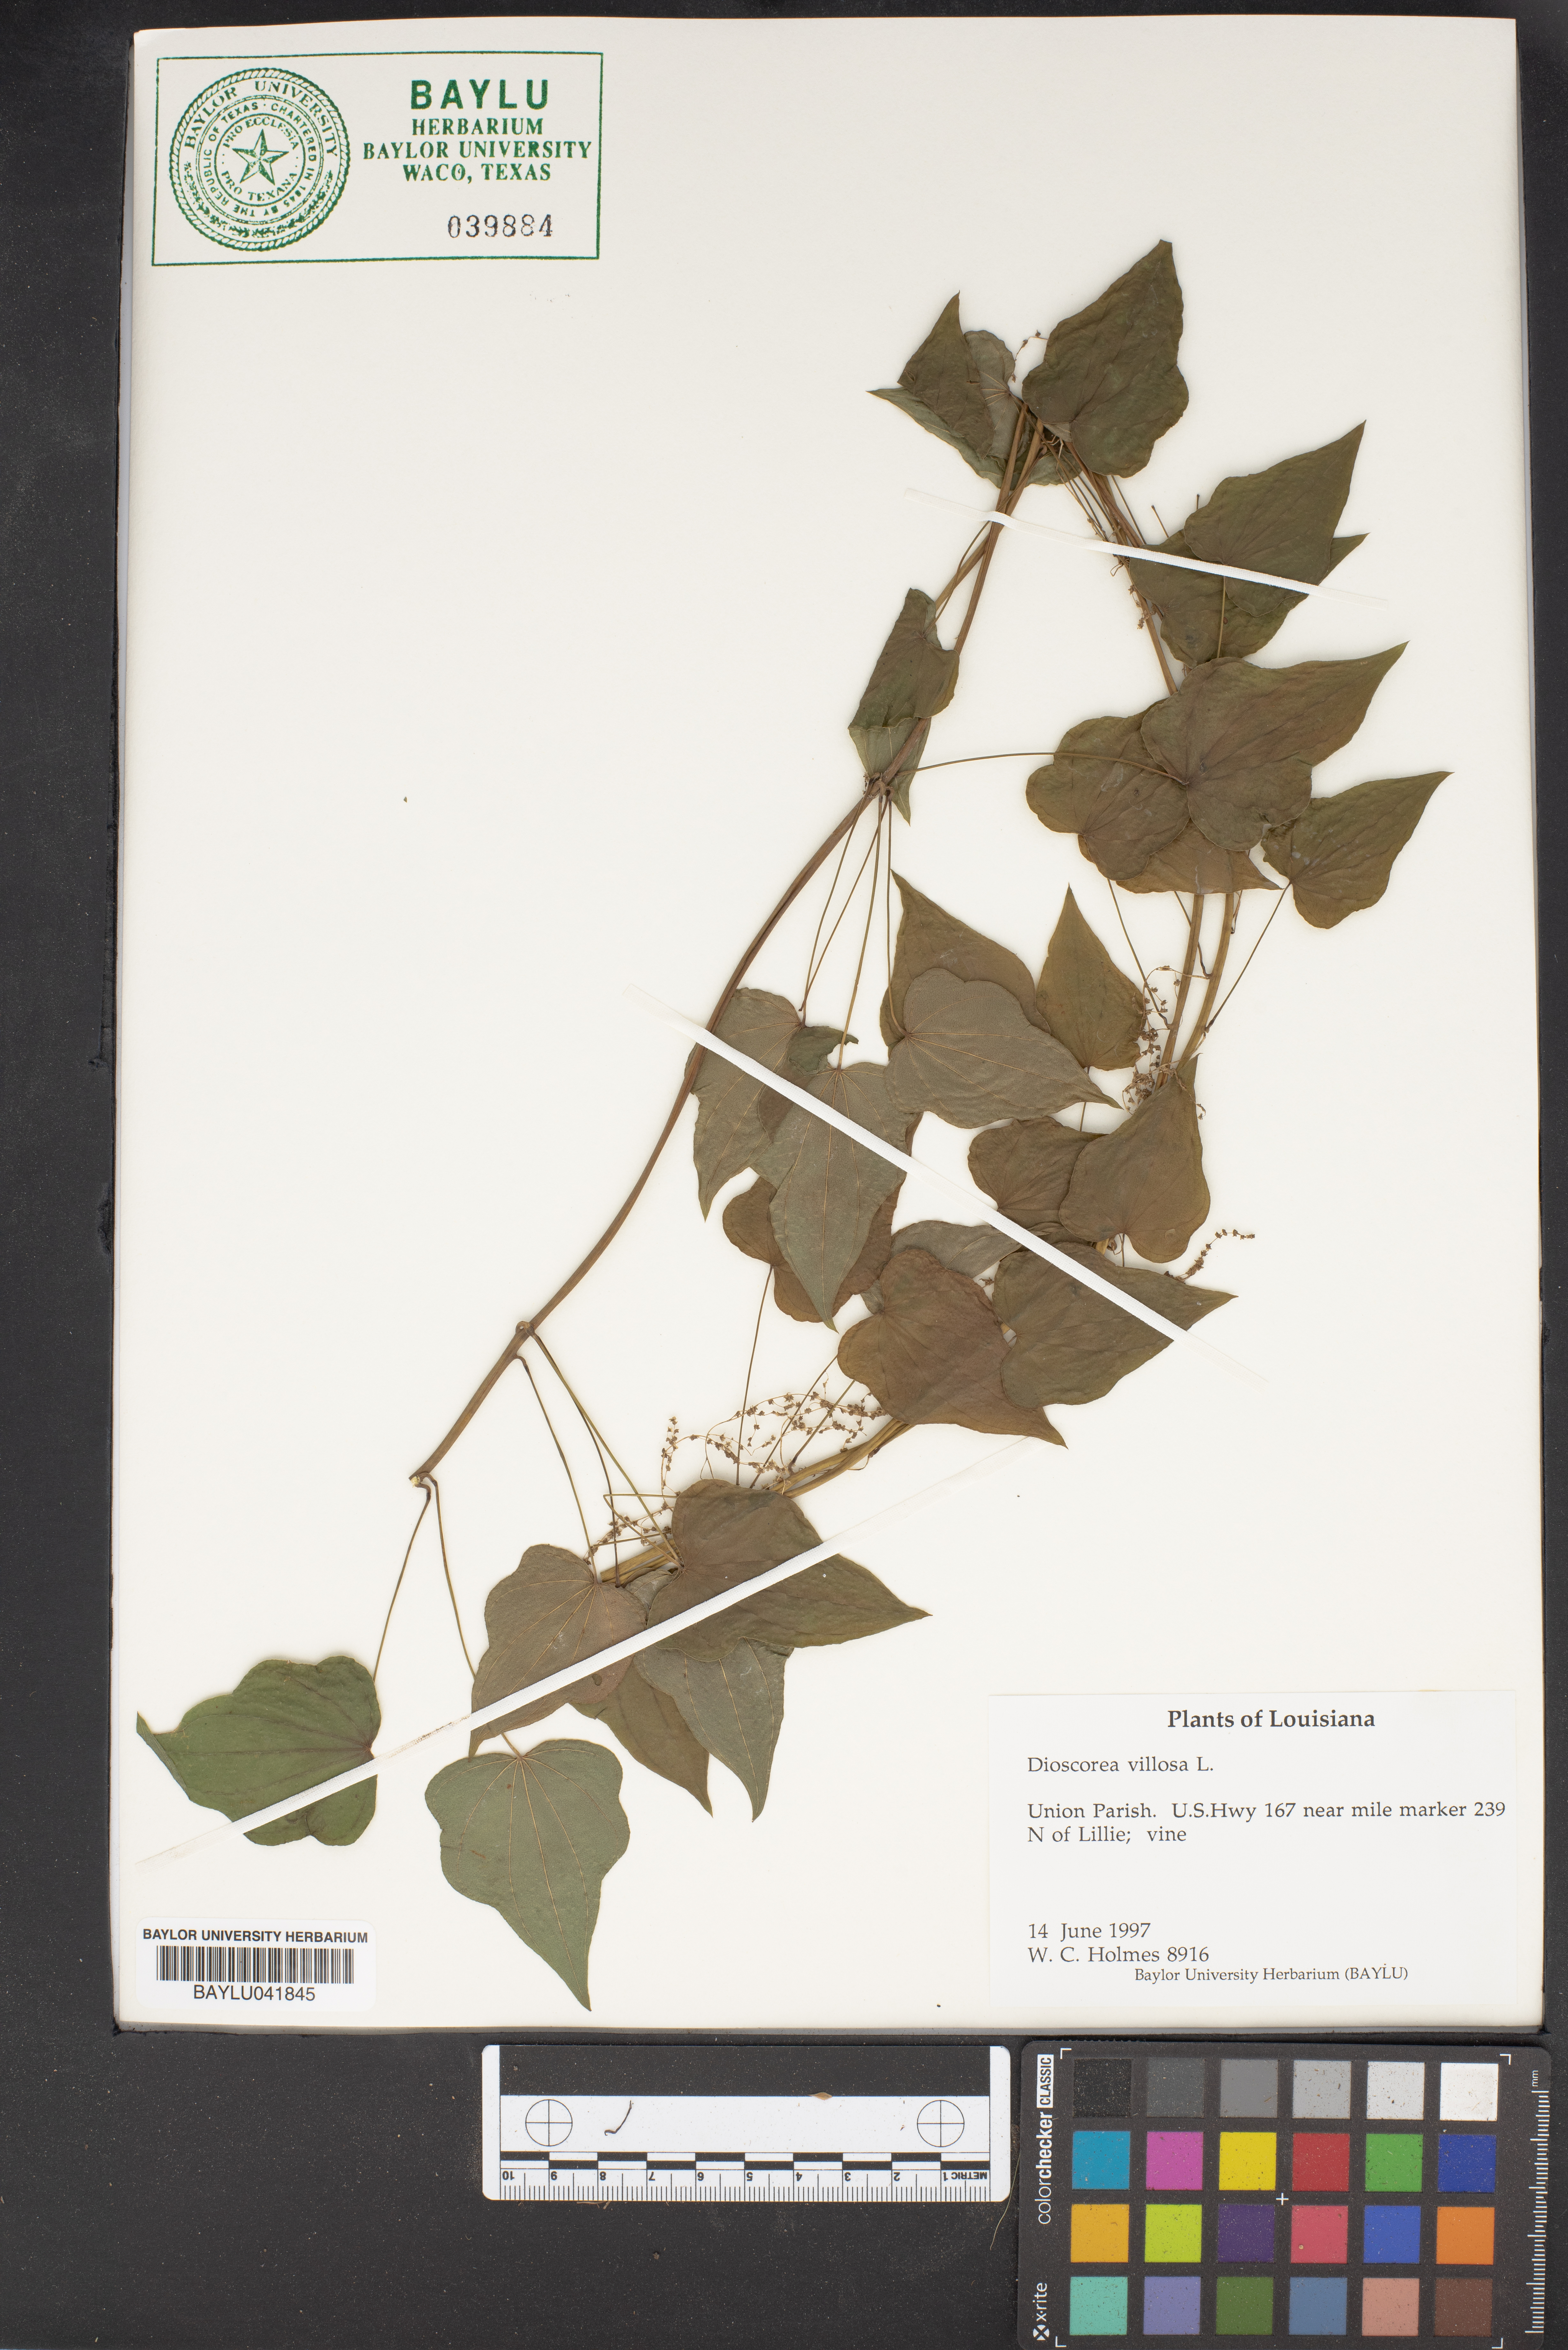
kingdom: Plantae
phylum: Tracheophyta
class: Liliopsida
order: Dioscoreales
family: Dioscoreaceae
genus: Dioscorea
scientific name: Dioscorea villosa
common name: Wild yam
